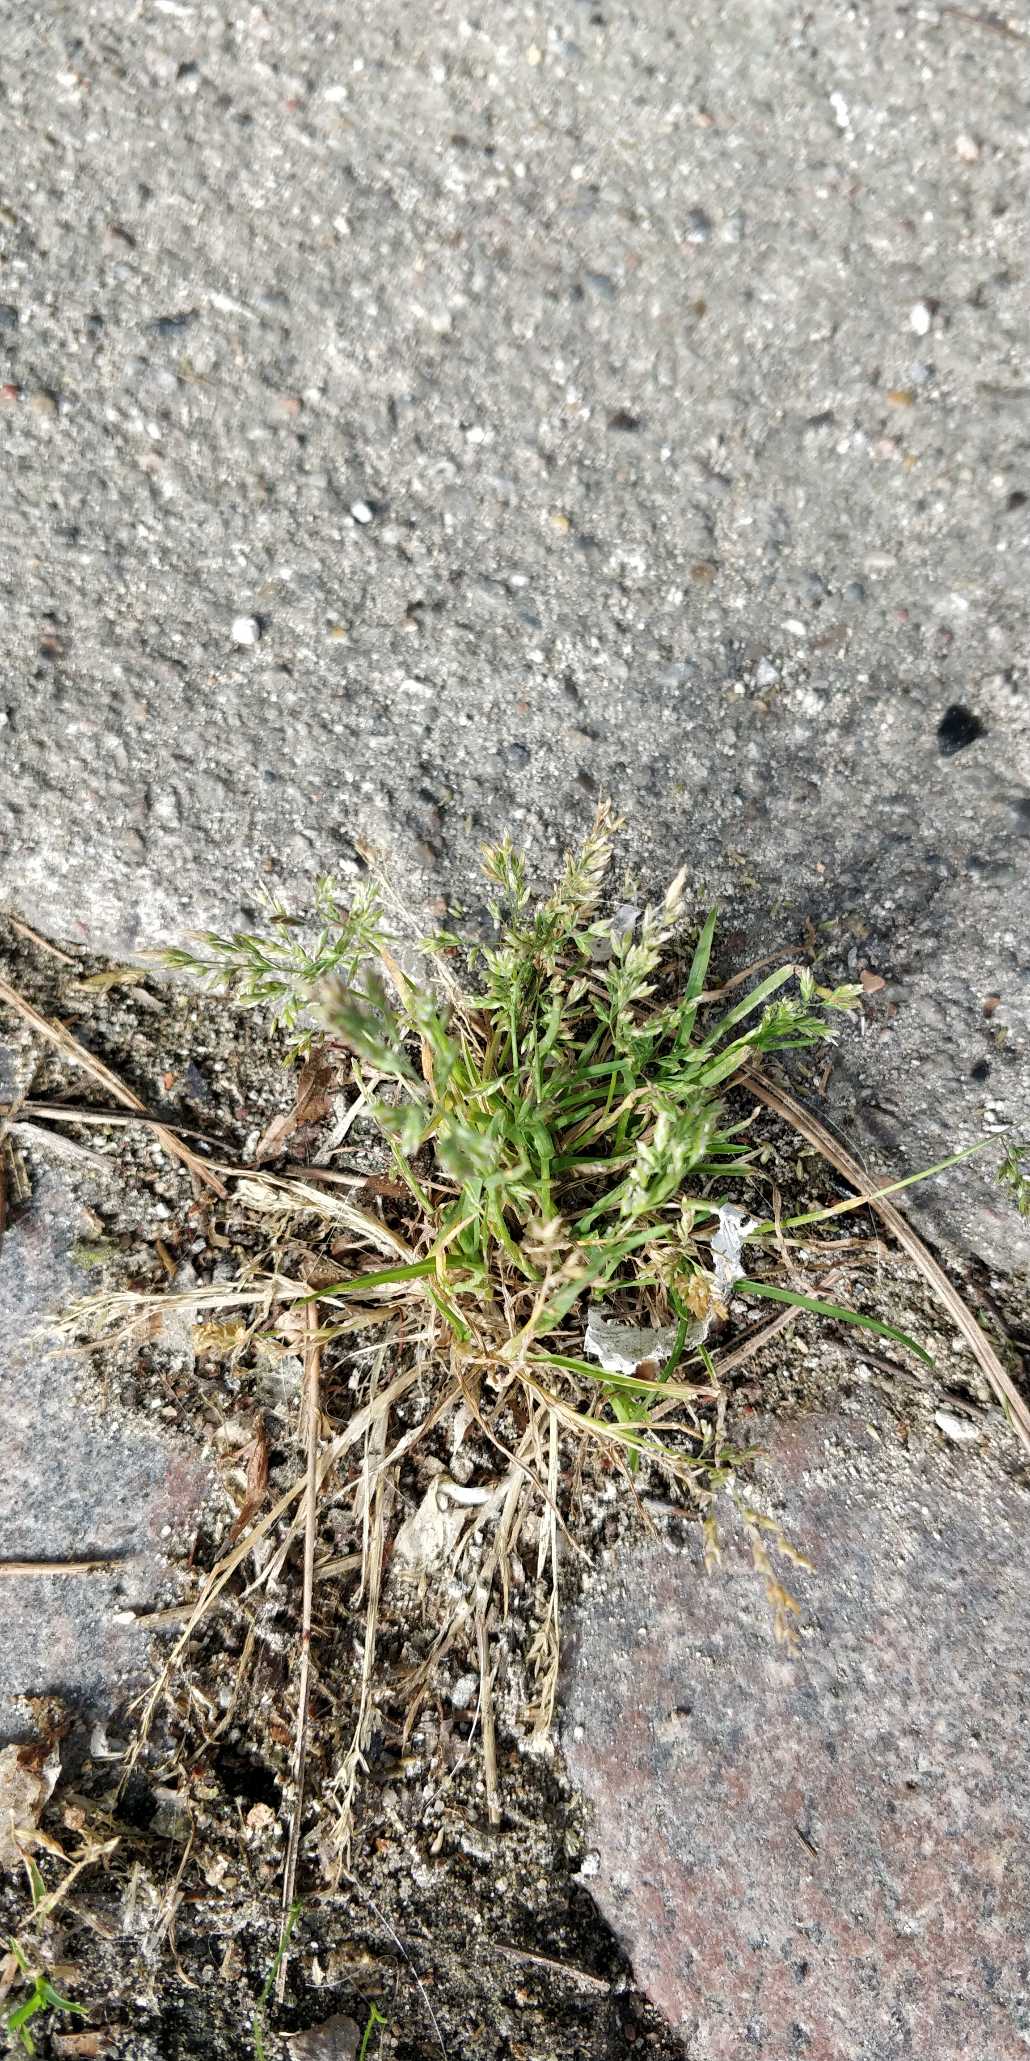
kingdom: Plantae
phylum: Tracheophyta
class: Liliopsida
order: Poales
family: Poaceae
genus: Poa
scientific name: Poa annua
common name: Enårig rapgræs
